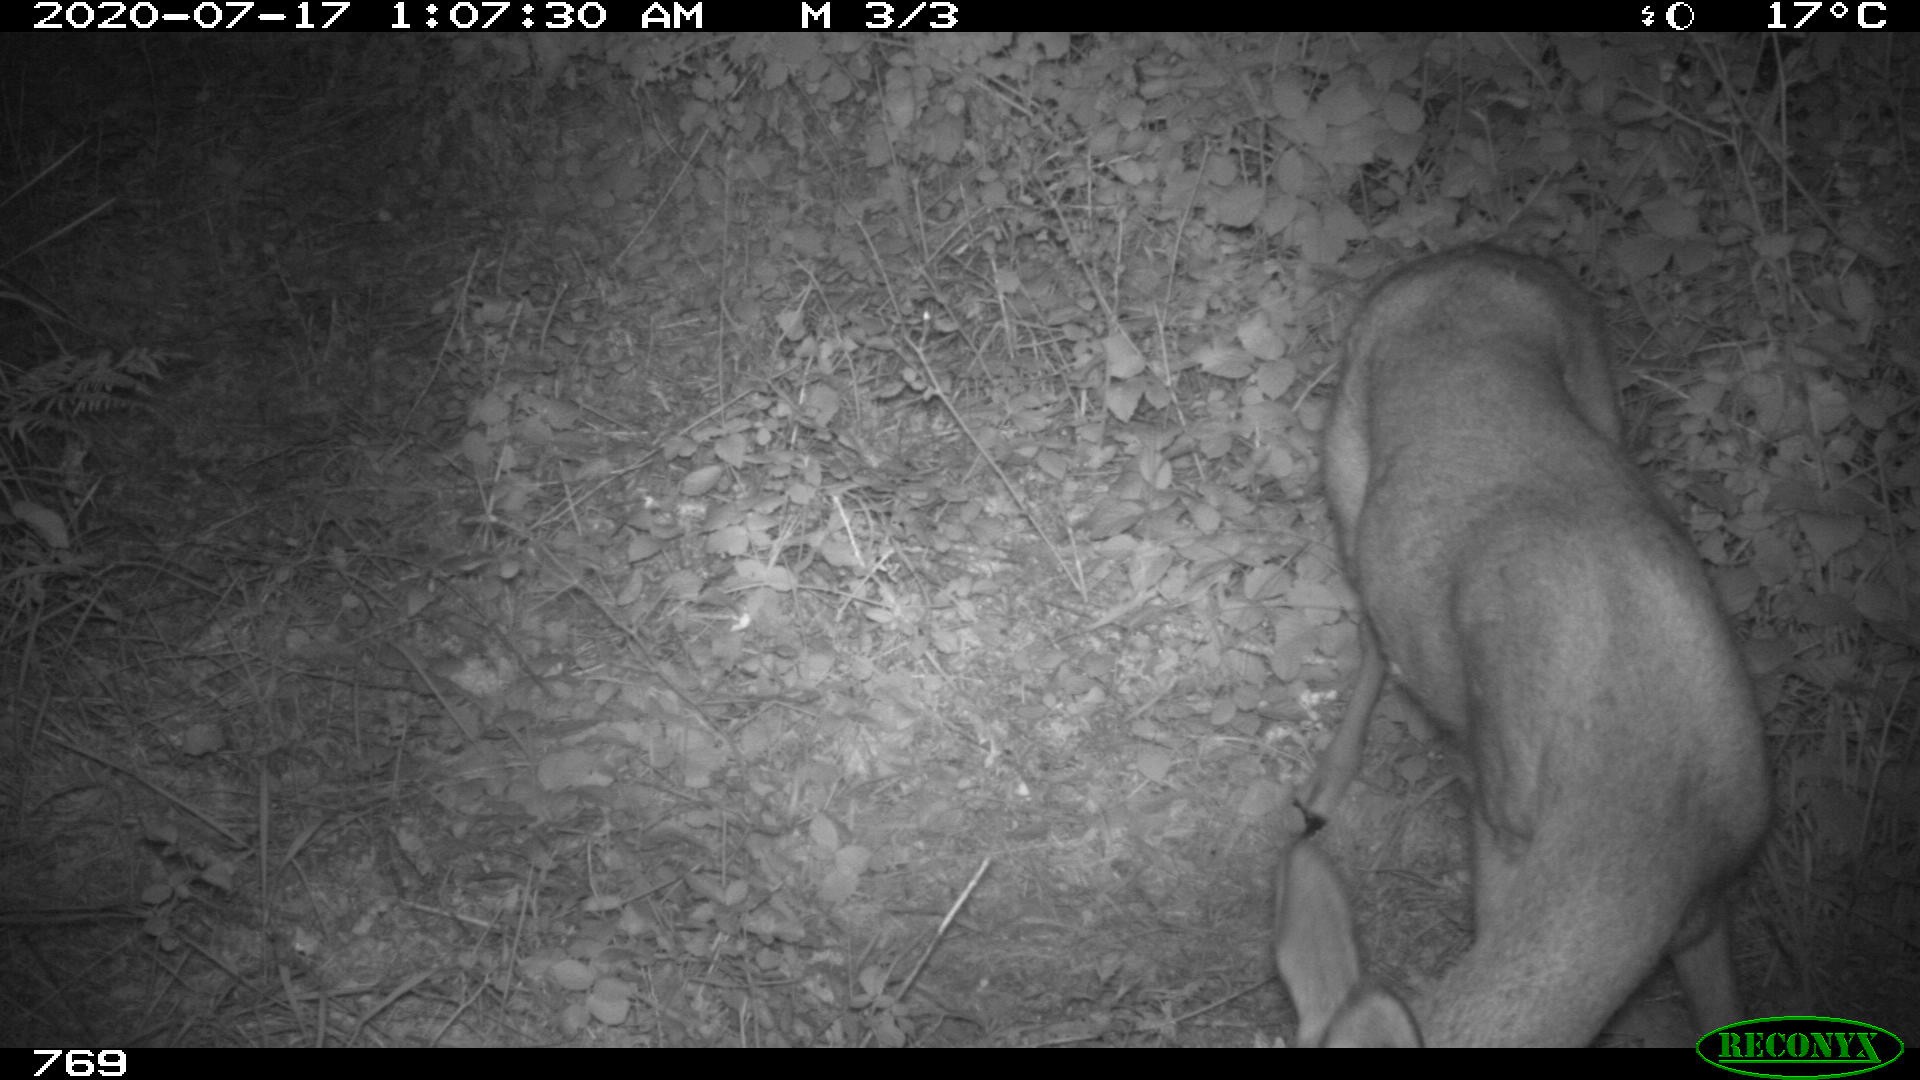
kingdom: Animalia
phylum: Chordata
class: Mammalia
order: Artiodactyla
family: Cervidae
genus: Capreolus
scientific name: Capreolus capreolus
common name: Western roe deer
